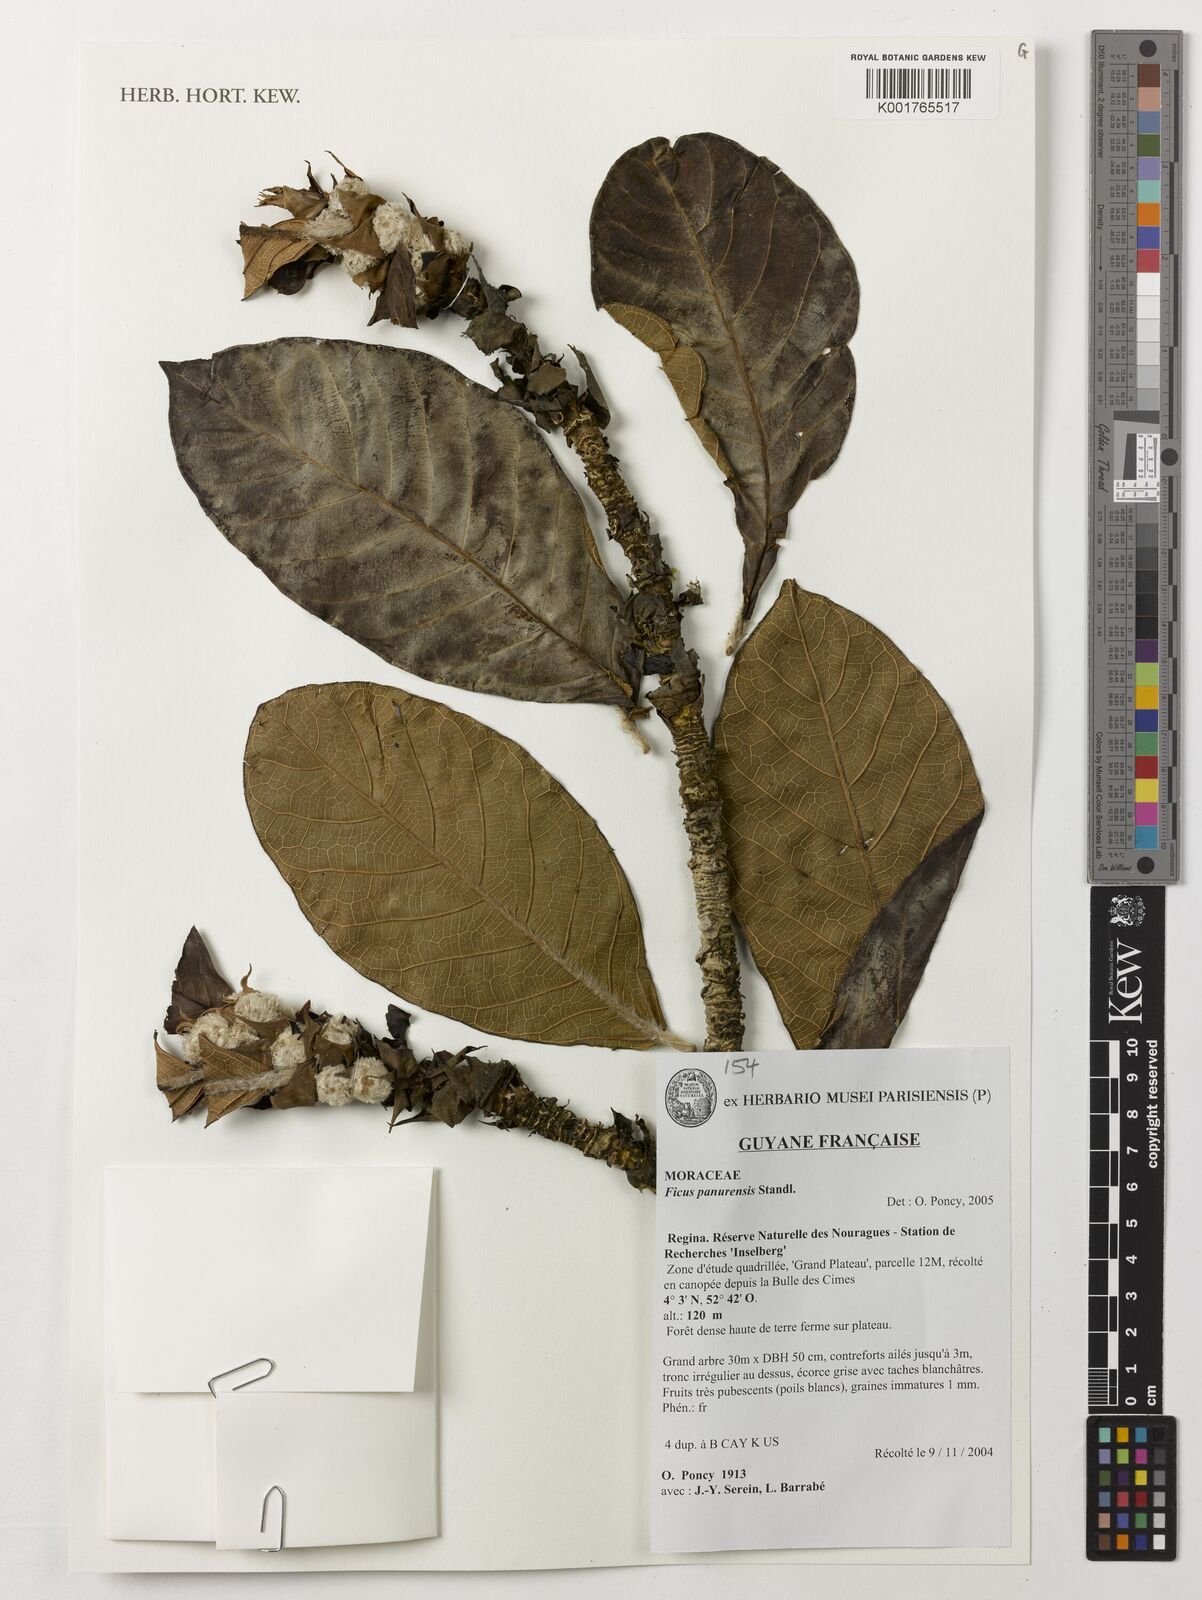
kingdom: Plantae
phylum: Tracheophyta
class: Magnoliopsida
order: Rosales
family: Moraceae
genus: Ficus
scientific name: Ficus panurensis
